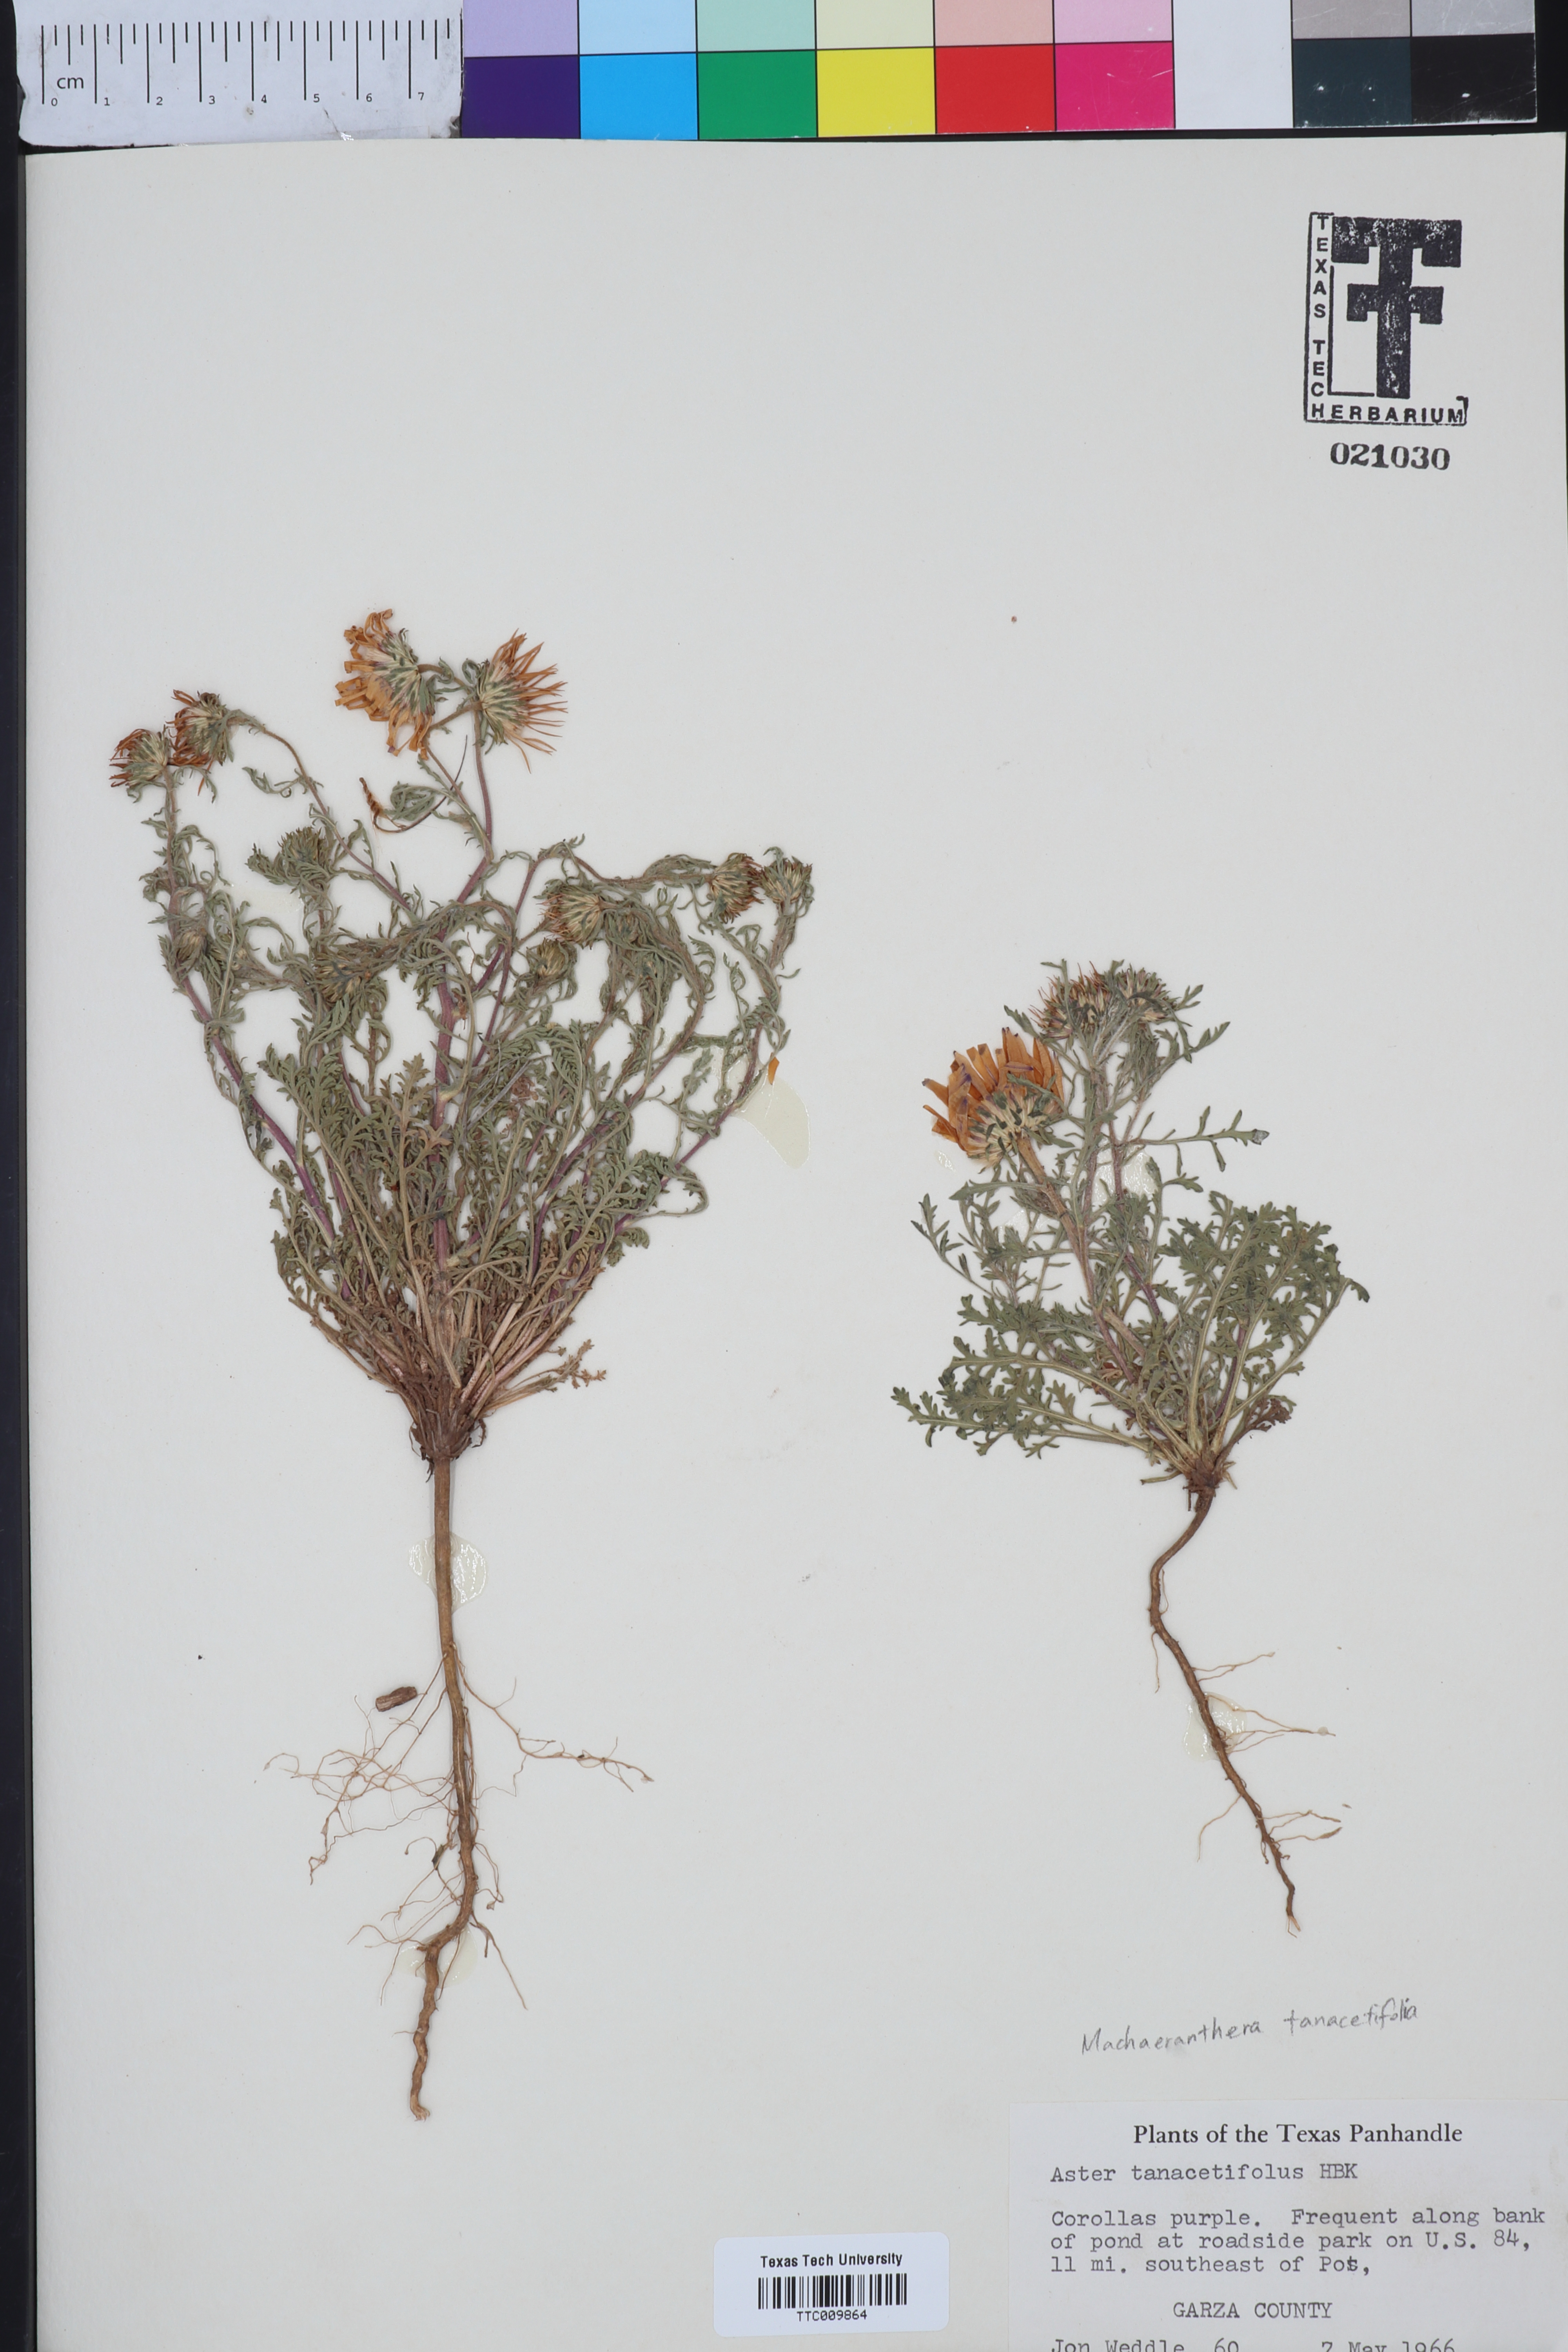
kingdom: Plantae
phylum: Tracheophyta
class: Magnoliopsida
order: Asterales
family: Asteraceae
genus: Machaeranthera
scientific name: Machaeranthera tanacetifolia
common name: Tansy-aster
